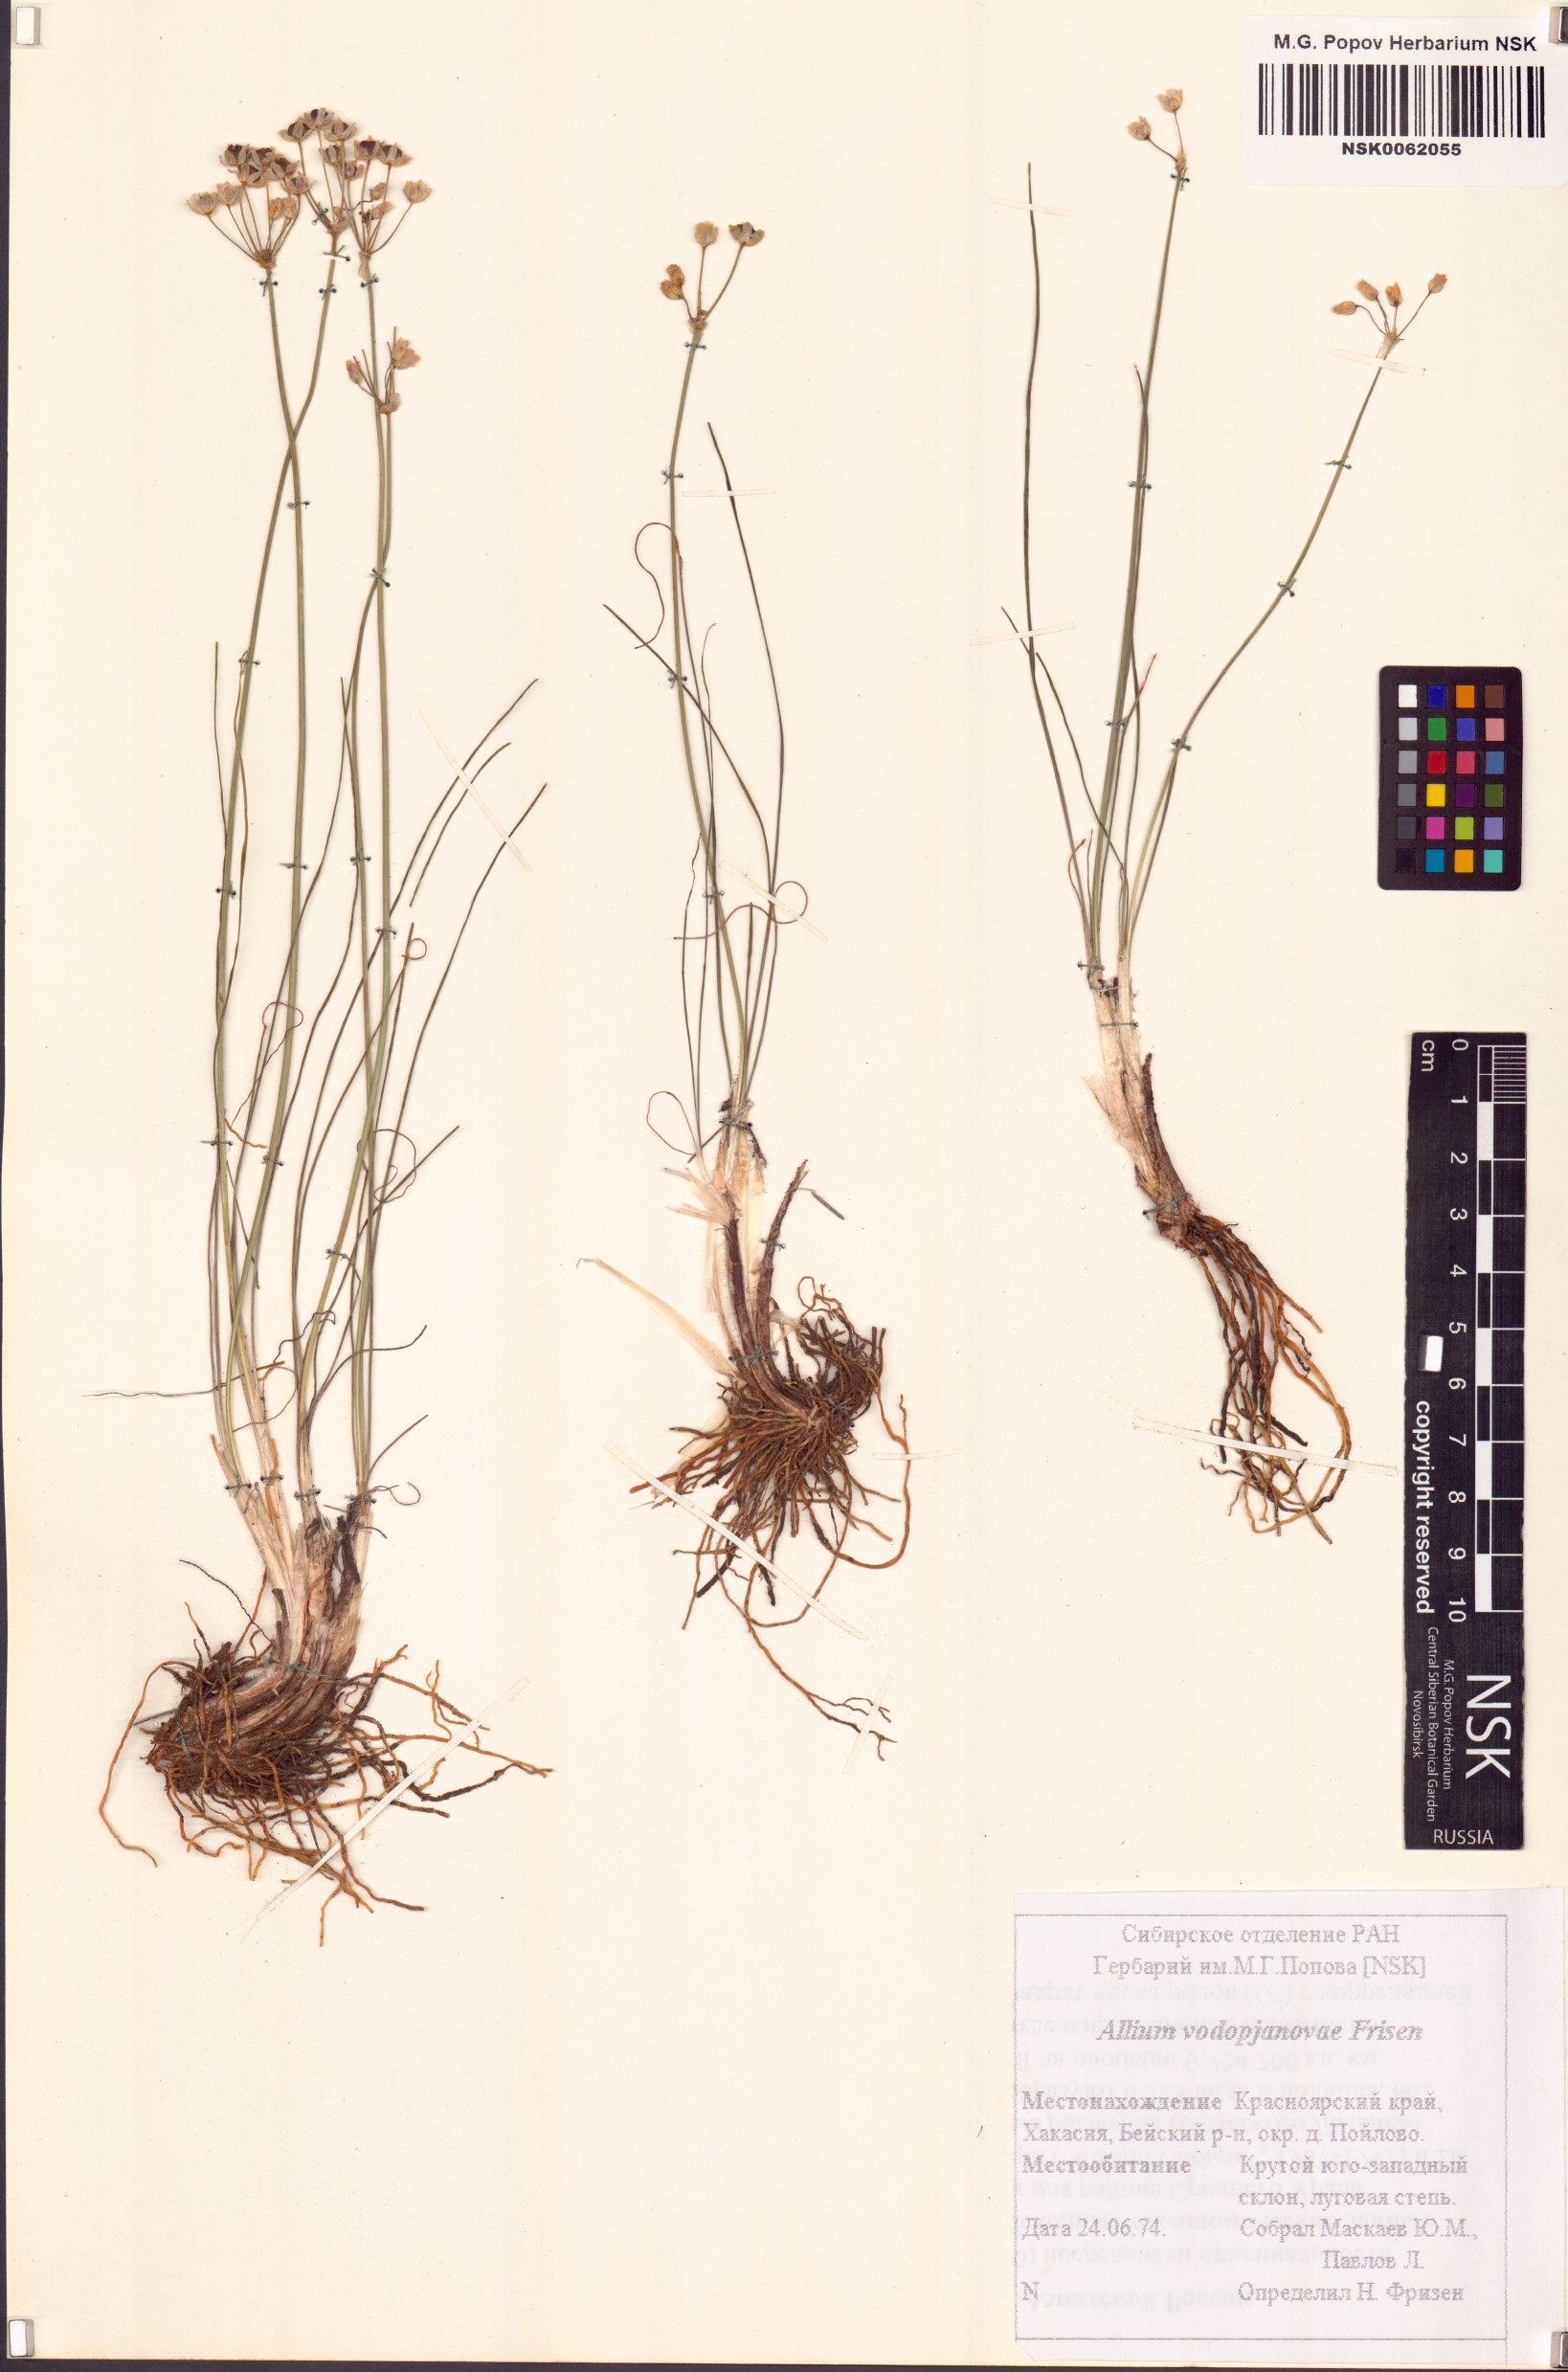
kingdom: Plantae
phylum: Tracheophyta
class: Liliopsida
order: Asparagales
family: Amaryllidaceae
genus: Allium
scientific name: Allium vodopjanovae
